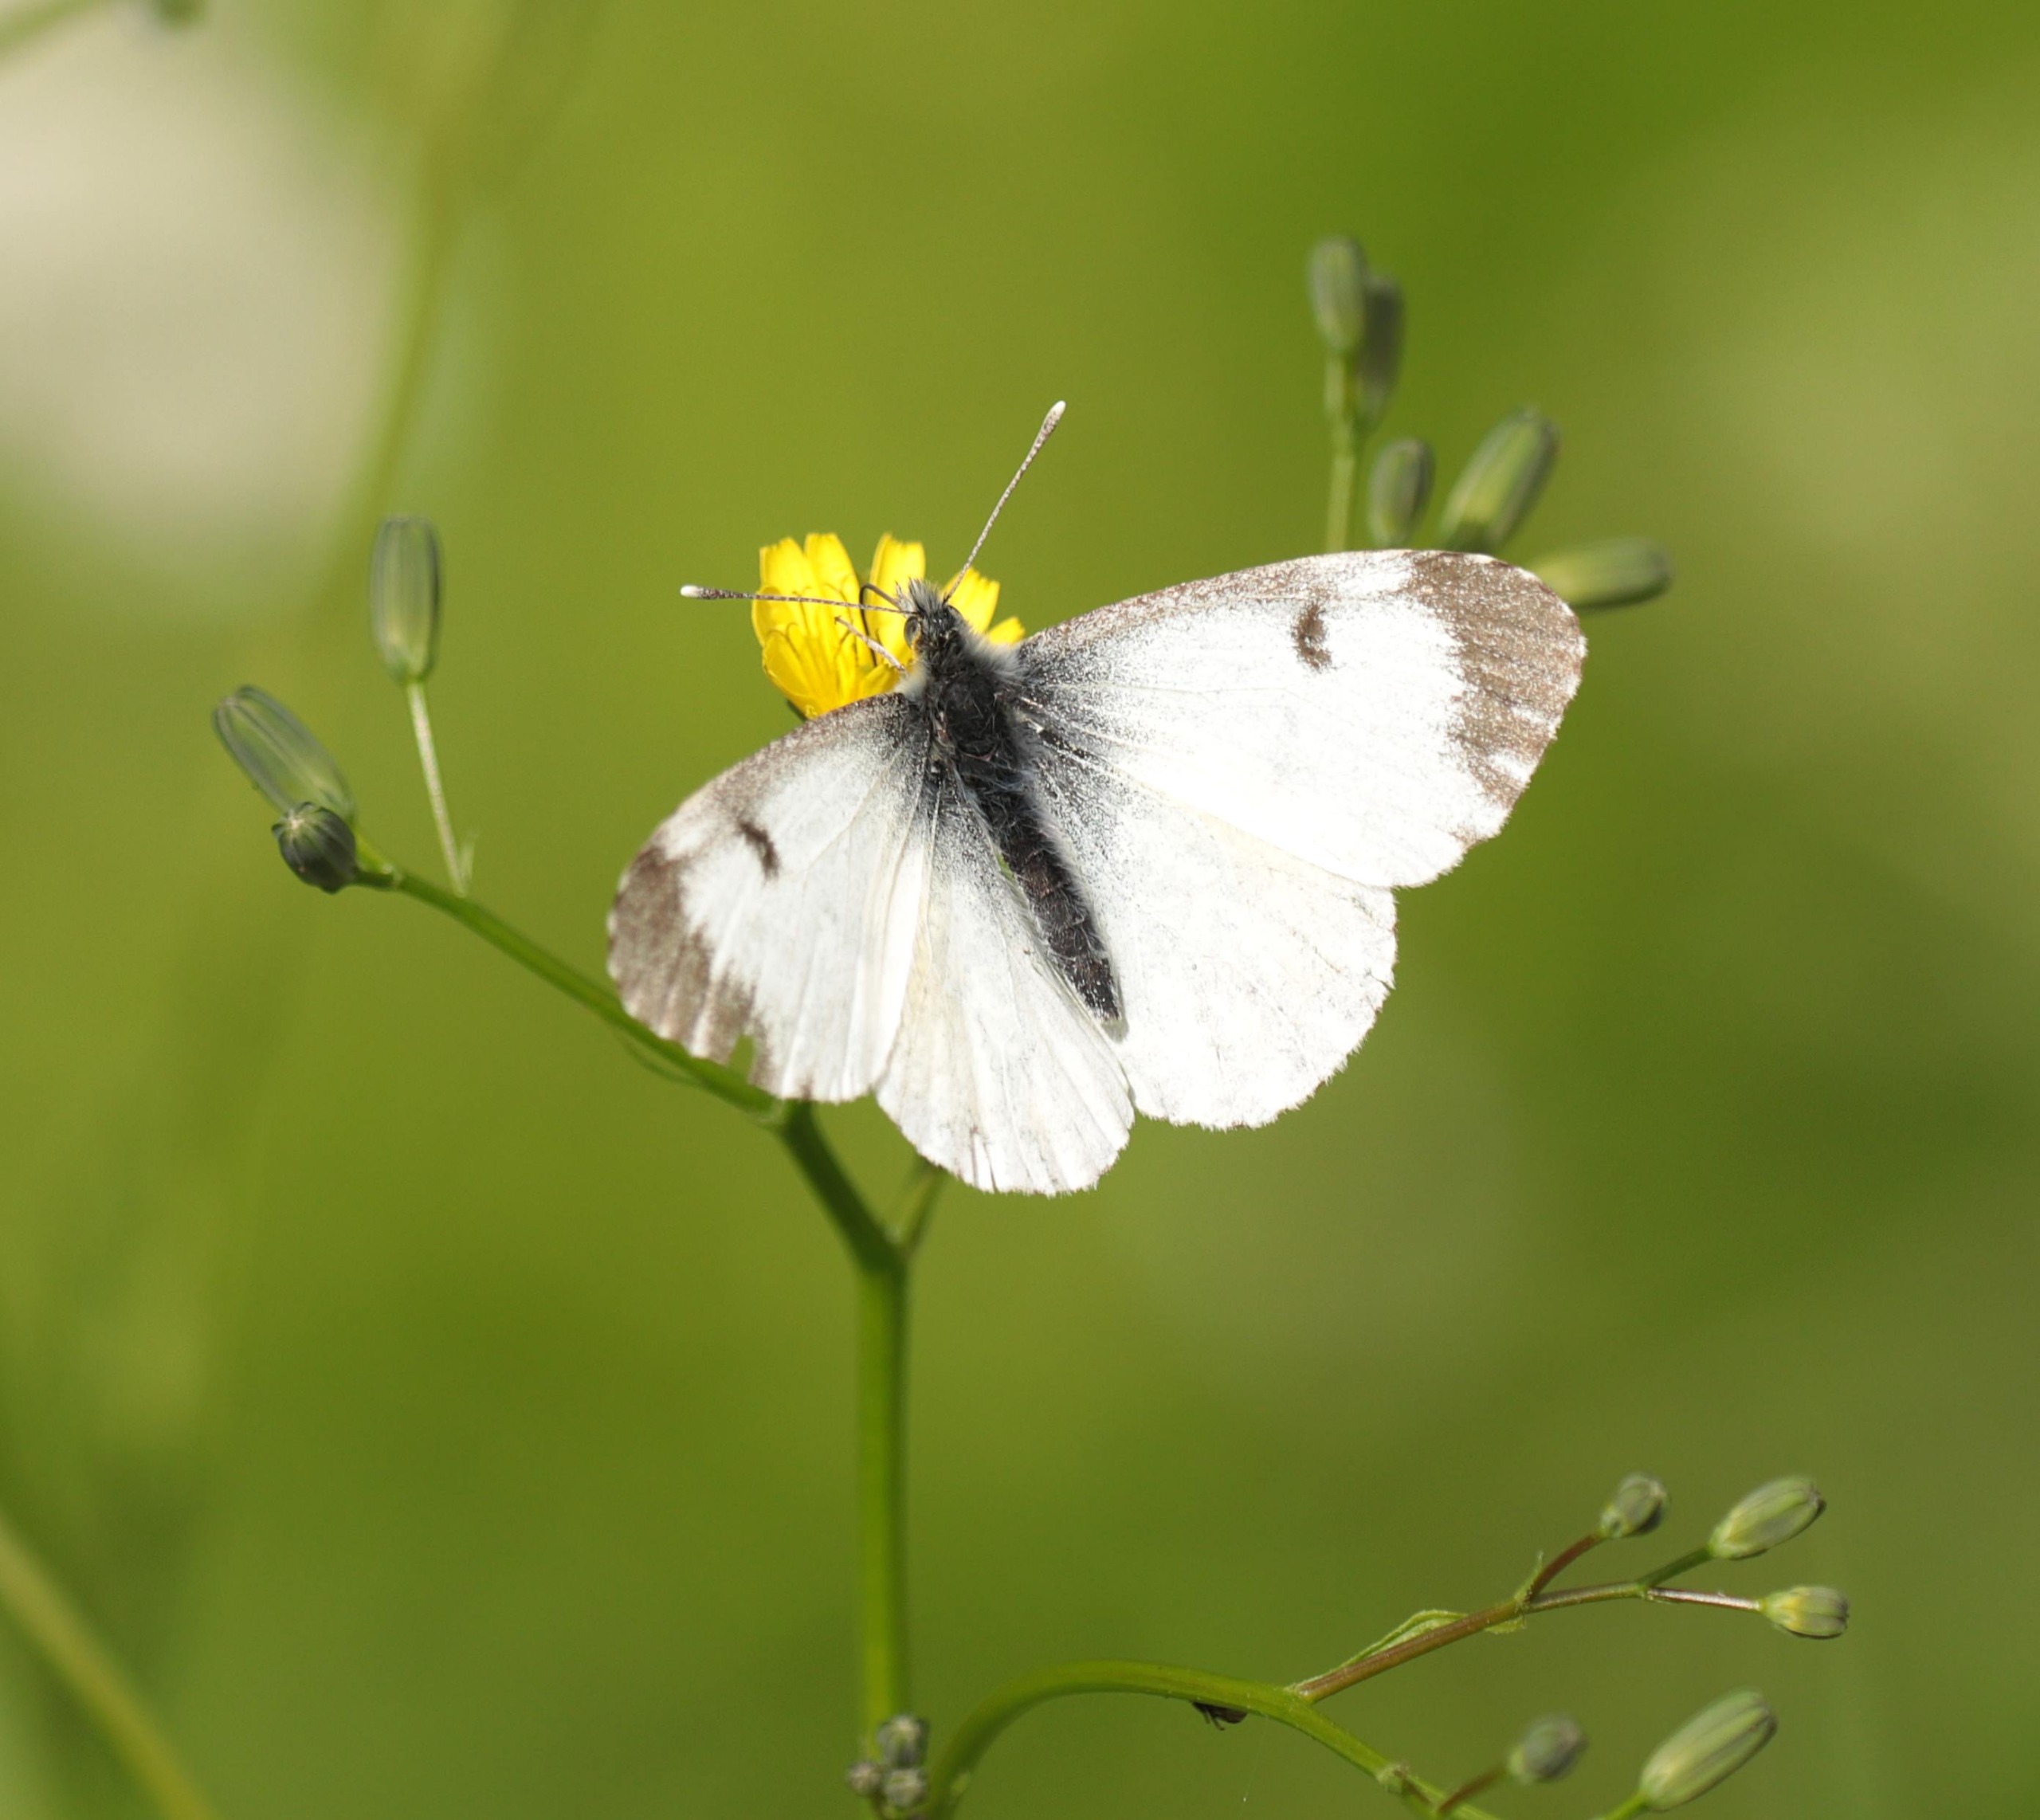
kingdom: Animalia
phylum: Arthropoda
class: Insecta
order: Lepidoptera
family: Pieridae
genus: Anthocharis
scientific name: Anthocharis cardamines
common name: Aurora
